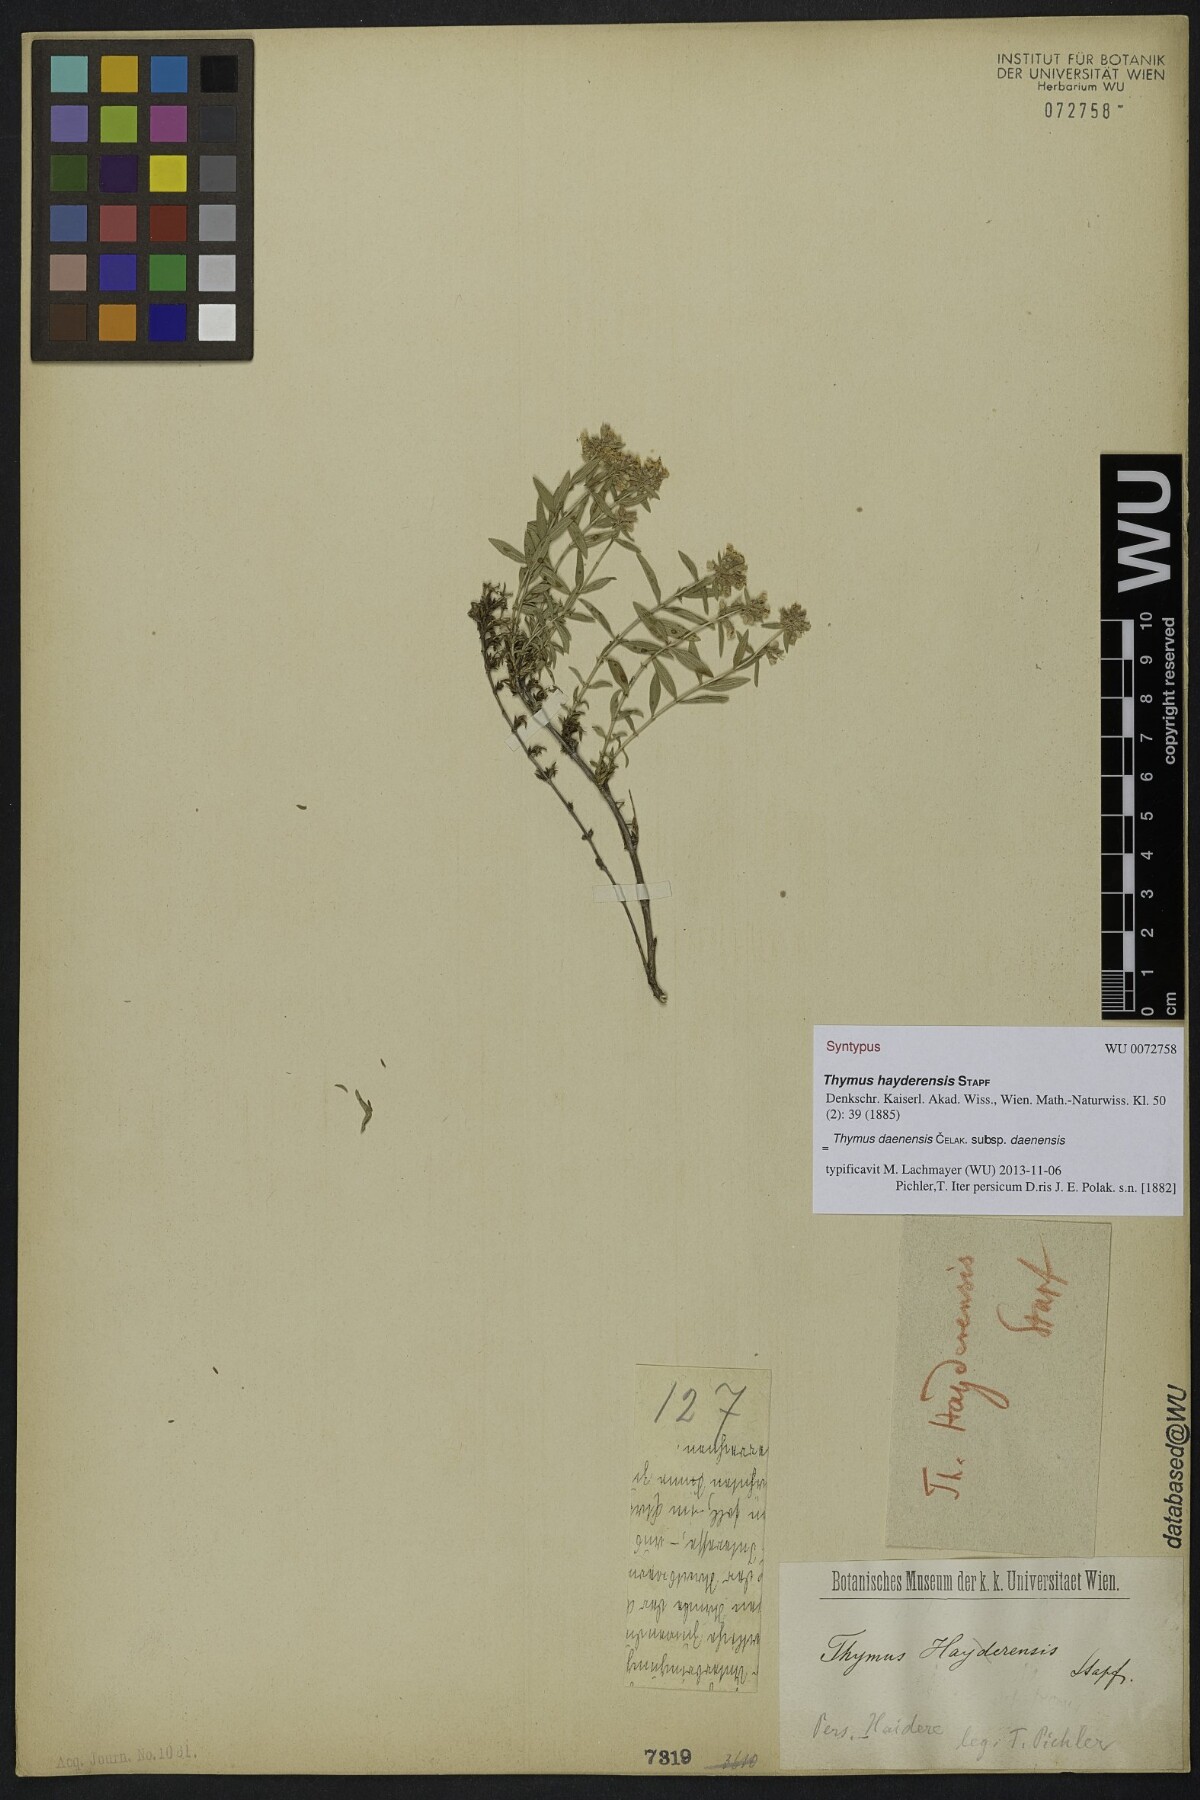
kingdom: Plantae
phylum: Tracheophyta
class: Magnoliopsida
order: Lamiales
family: Lamiaceae
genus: Thymus
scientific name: Thymus daenensis
